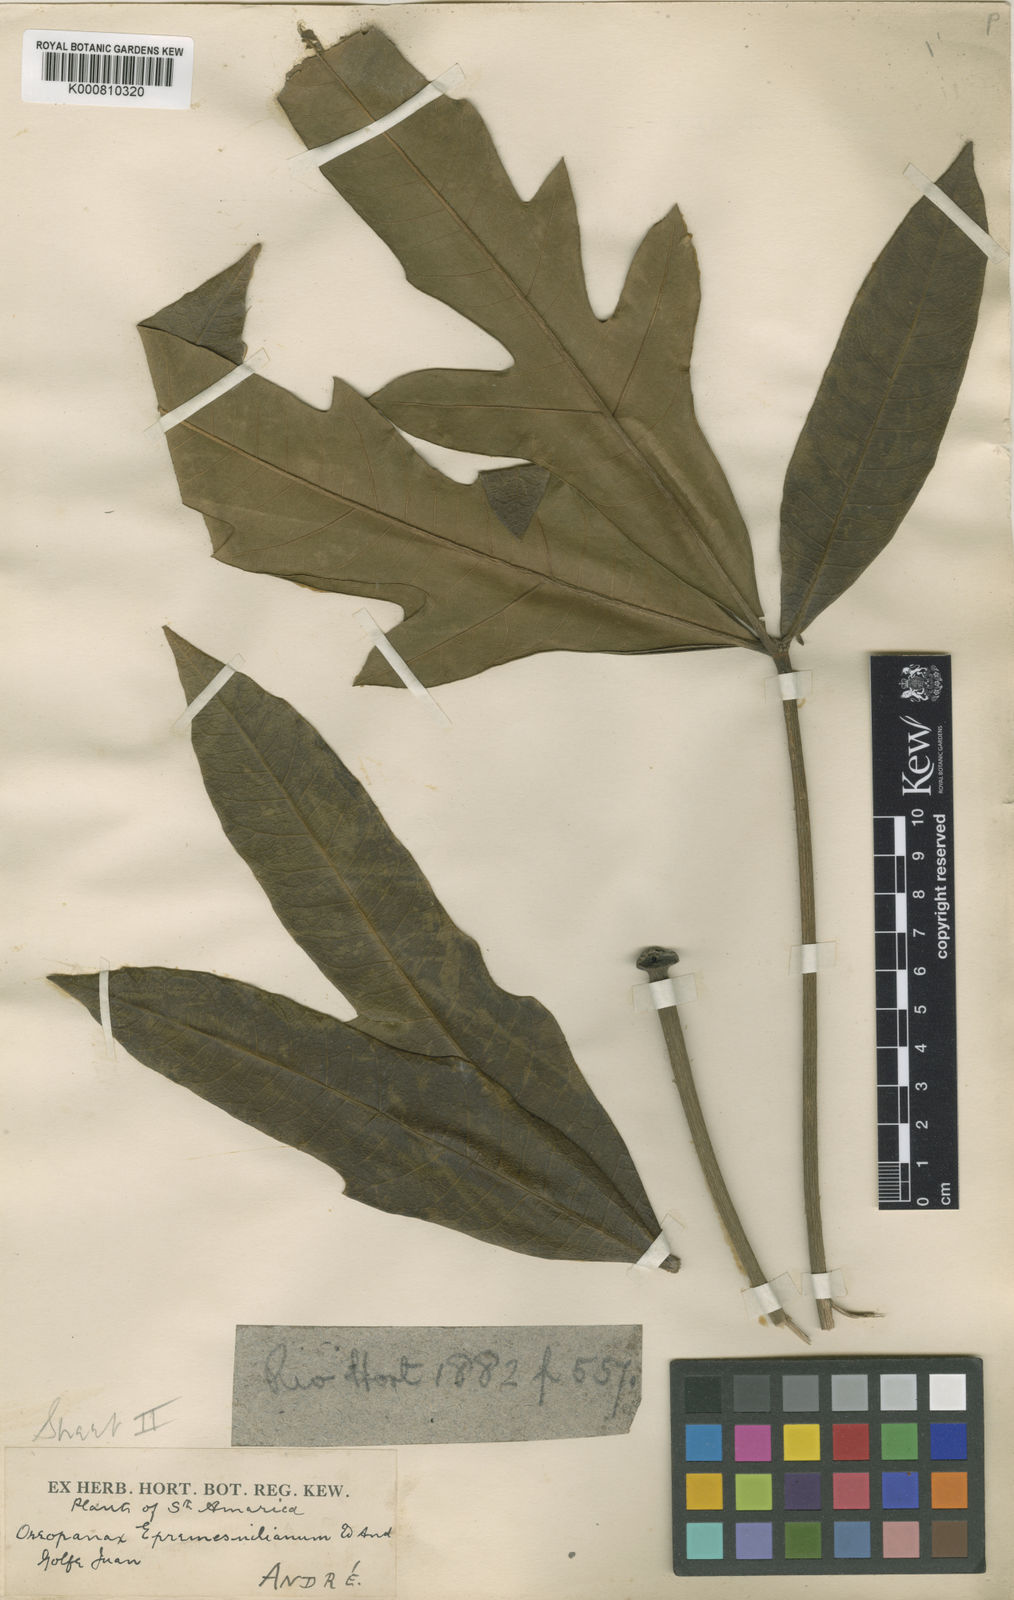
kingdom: Plantae
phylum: Tracheophyta
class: Magnoliopsida
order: Apiales
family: Araliaceae
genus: Oreopanax
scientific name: Oreopanax
